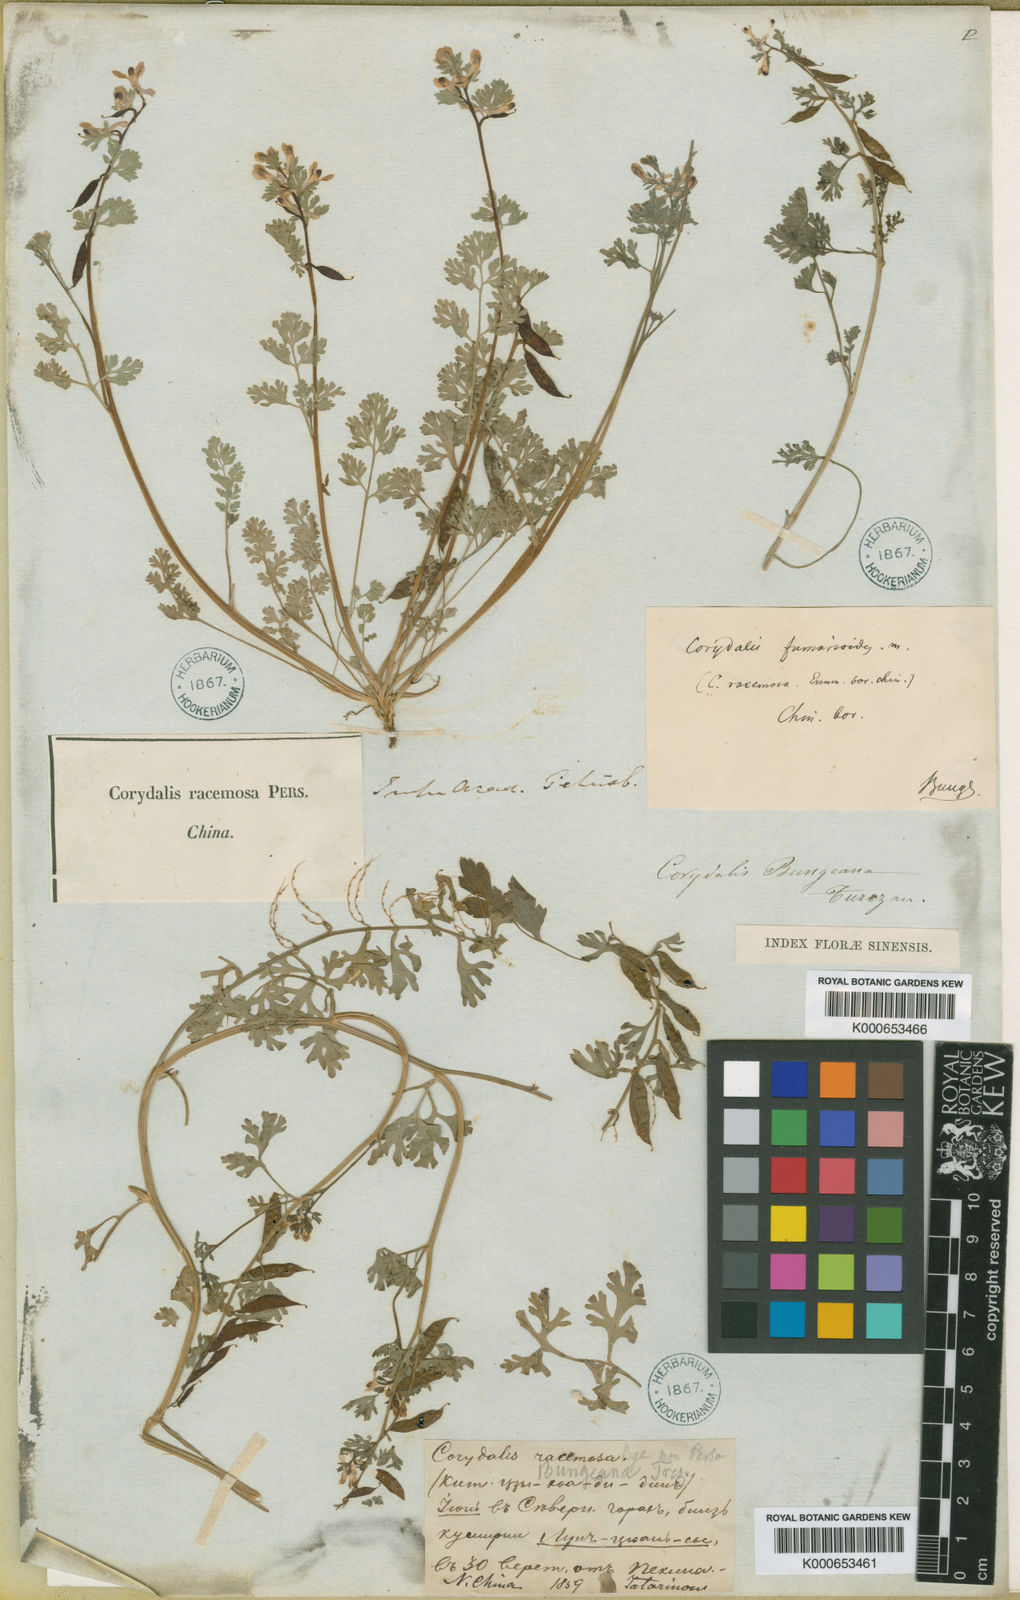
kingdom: Plantae
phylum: Tracheophyta
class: Magnoliopsida
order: Ranunculales
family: Papaveraceae
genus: Corydalis
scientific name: Corydalis bungeana
